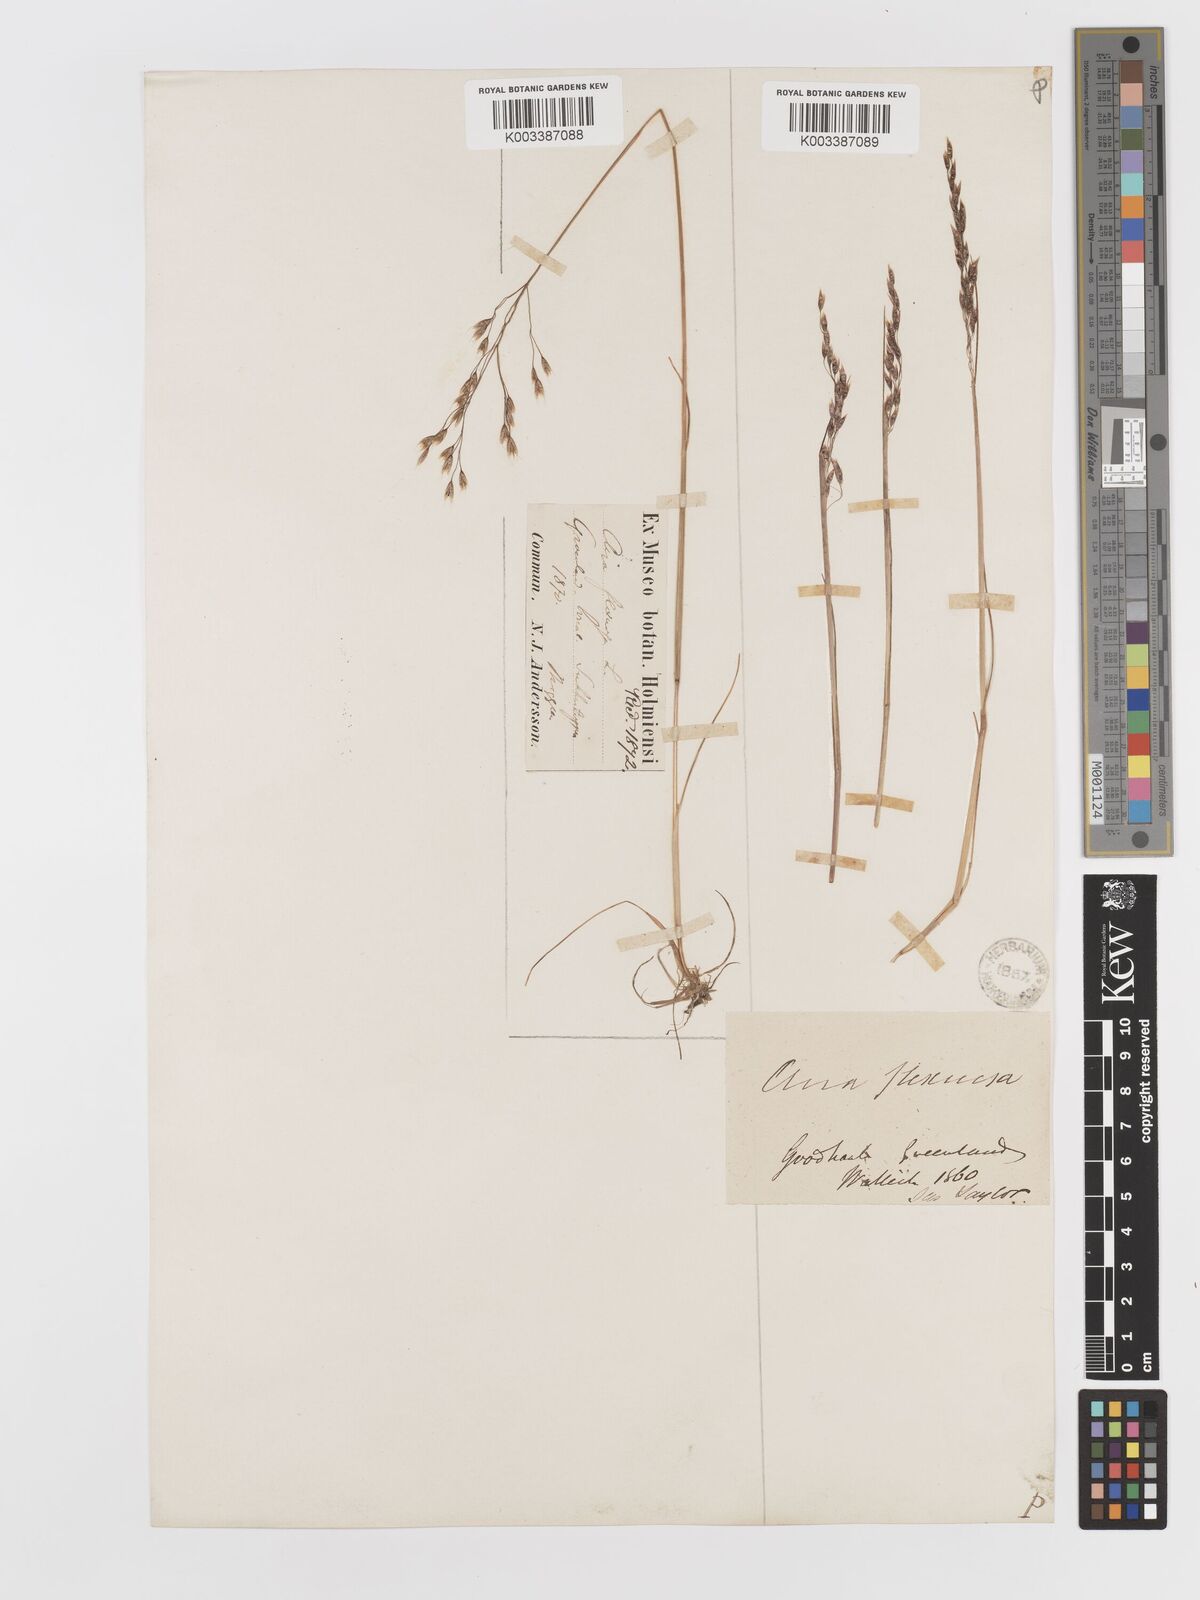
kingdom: Plantae
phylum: Tracheophyta
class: Liliopsida
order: Poales
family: Poaceae
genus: Avenella
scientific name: Avenella flexuosa
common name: Wavy hairgrass
